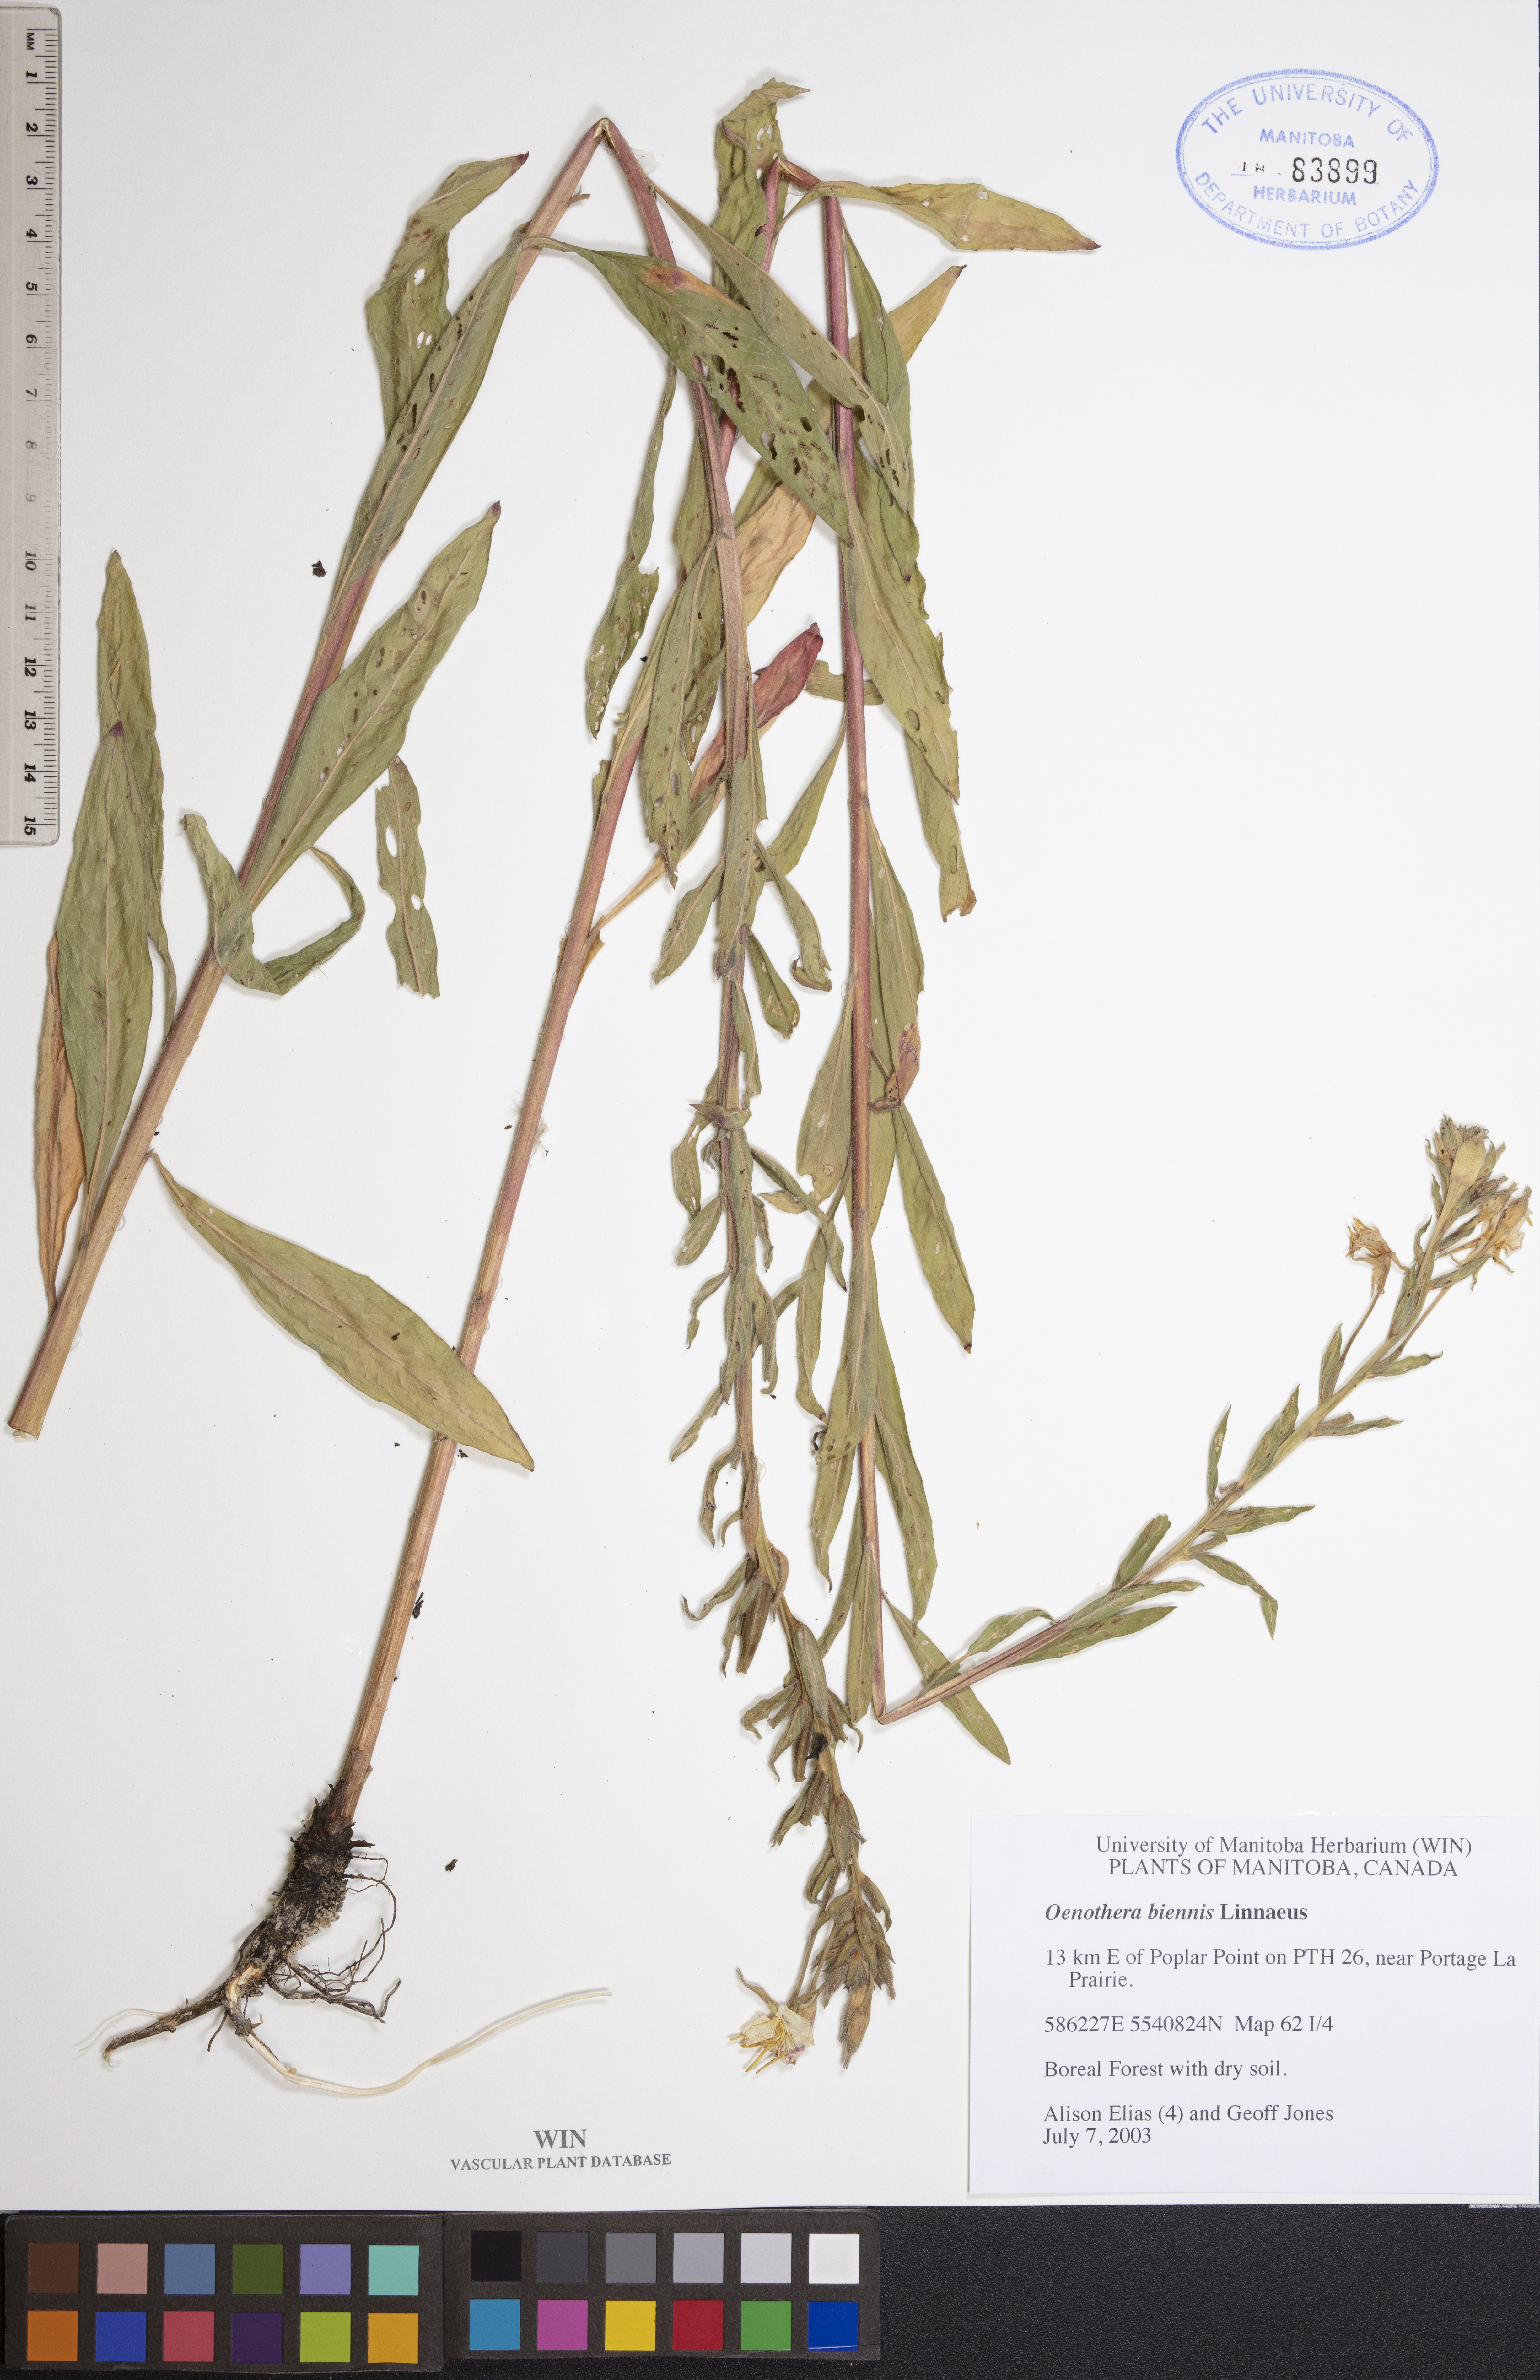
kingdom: Plantae
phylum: Tracheophyta
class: Magnoliopsida
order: Myrtales
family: Onagraceae
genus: Oenothera
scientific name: Oenothera biennis
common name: Common evening-primrose
